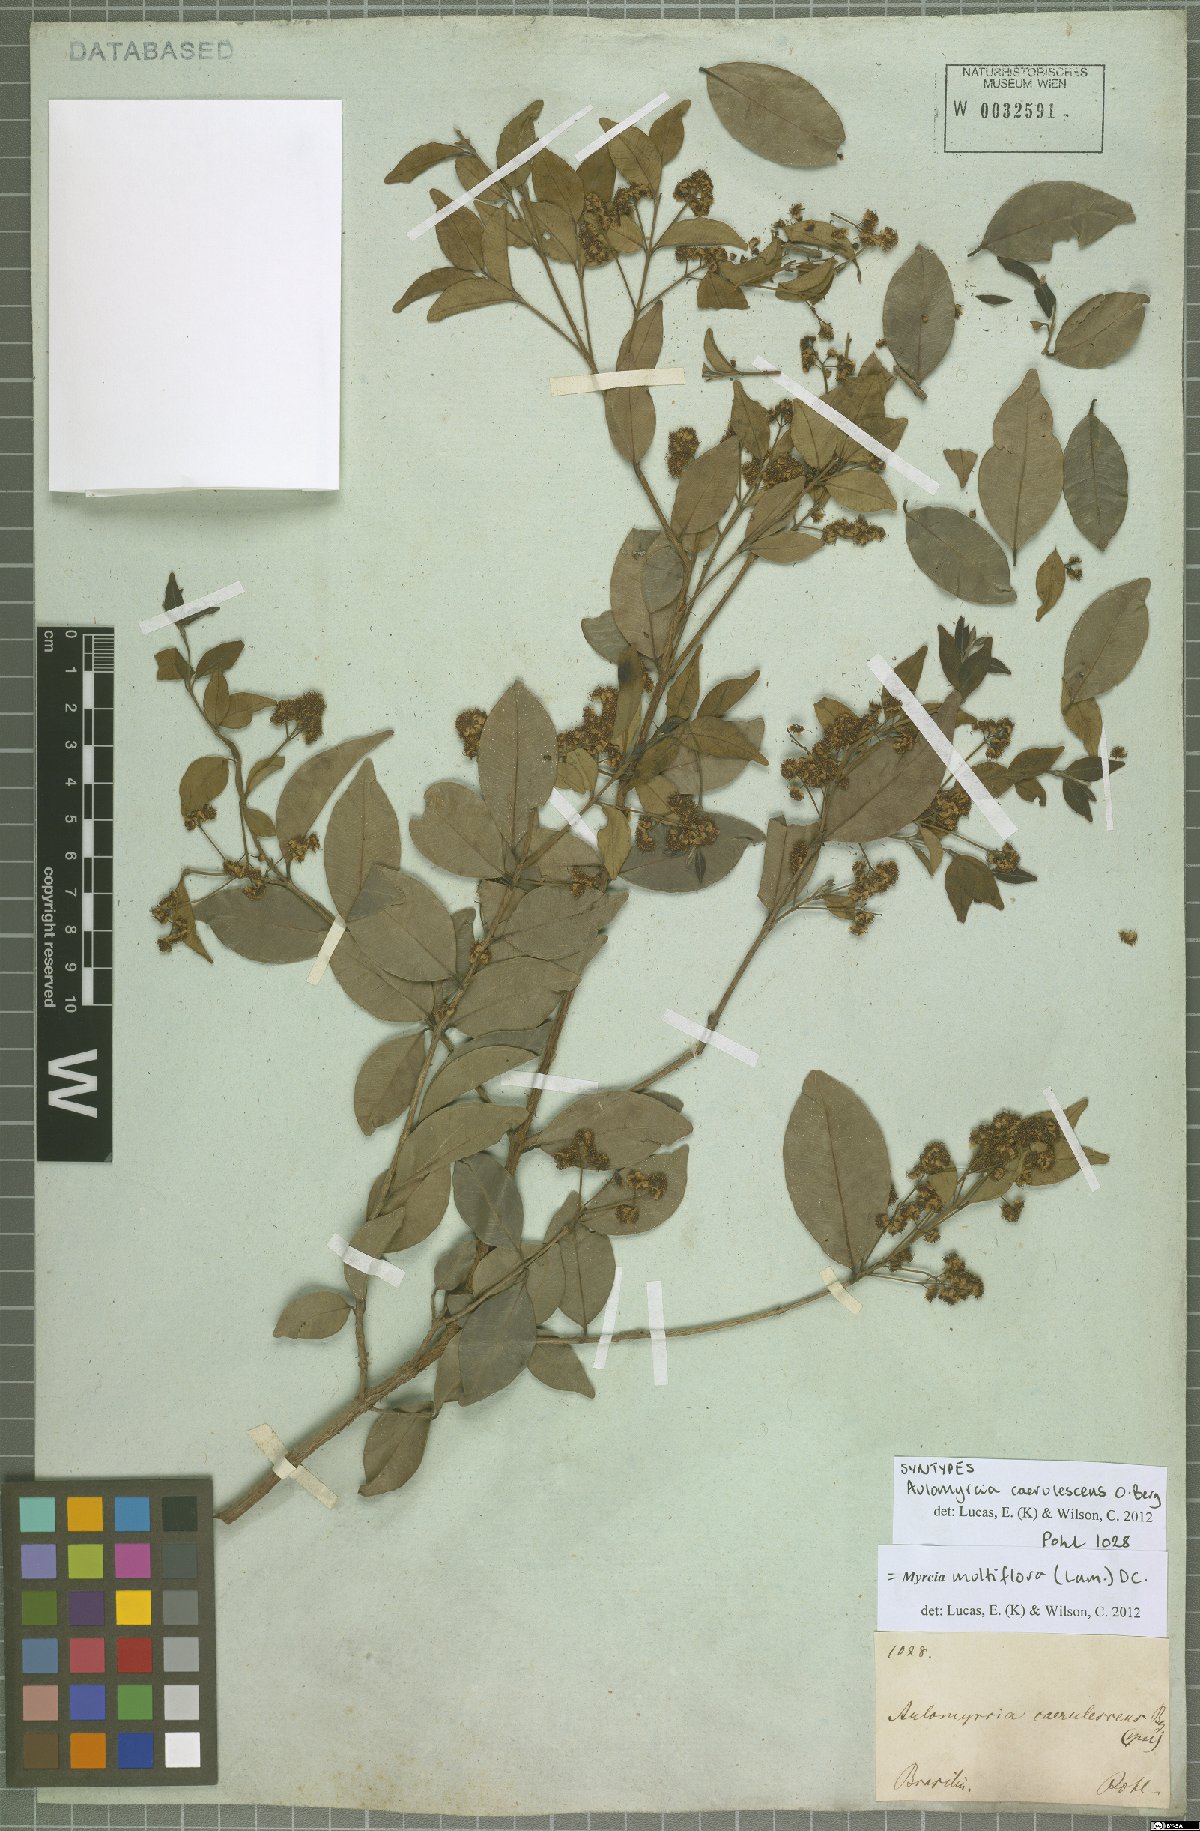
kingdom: Plantae
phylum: Tracheophyta
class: Magnoliopsida
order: Myrtales
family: Myrtaceae
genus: Myrcia
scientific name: Myrcia multiflora
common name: Pedra hume
